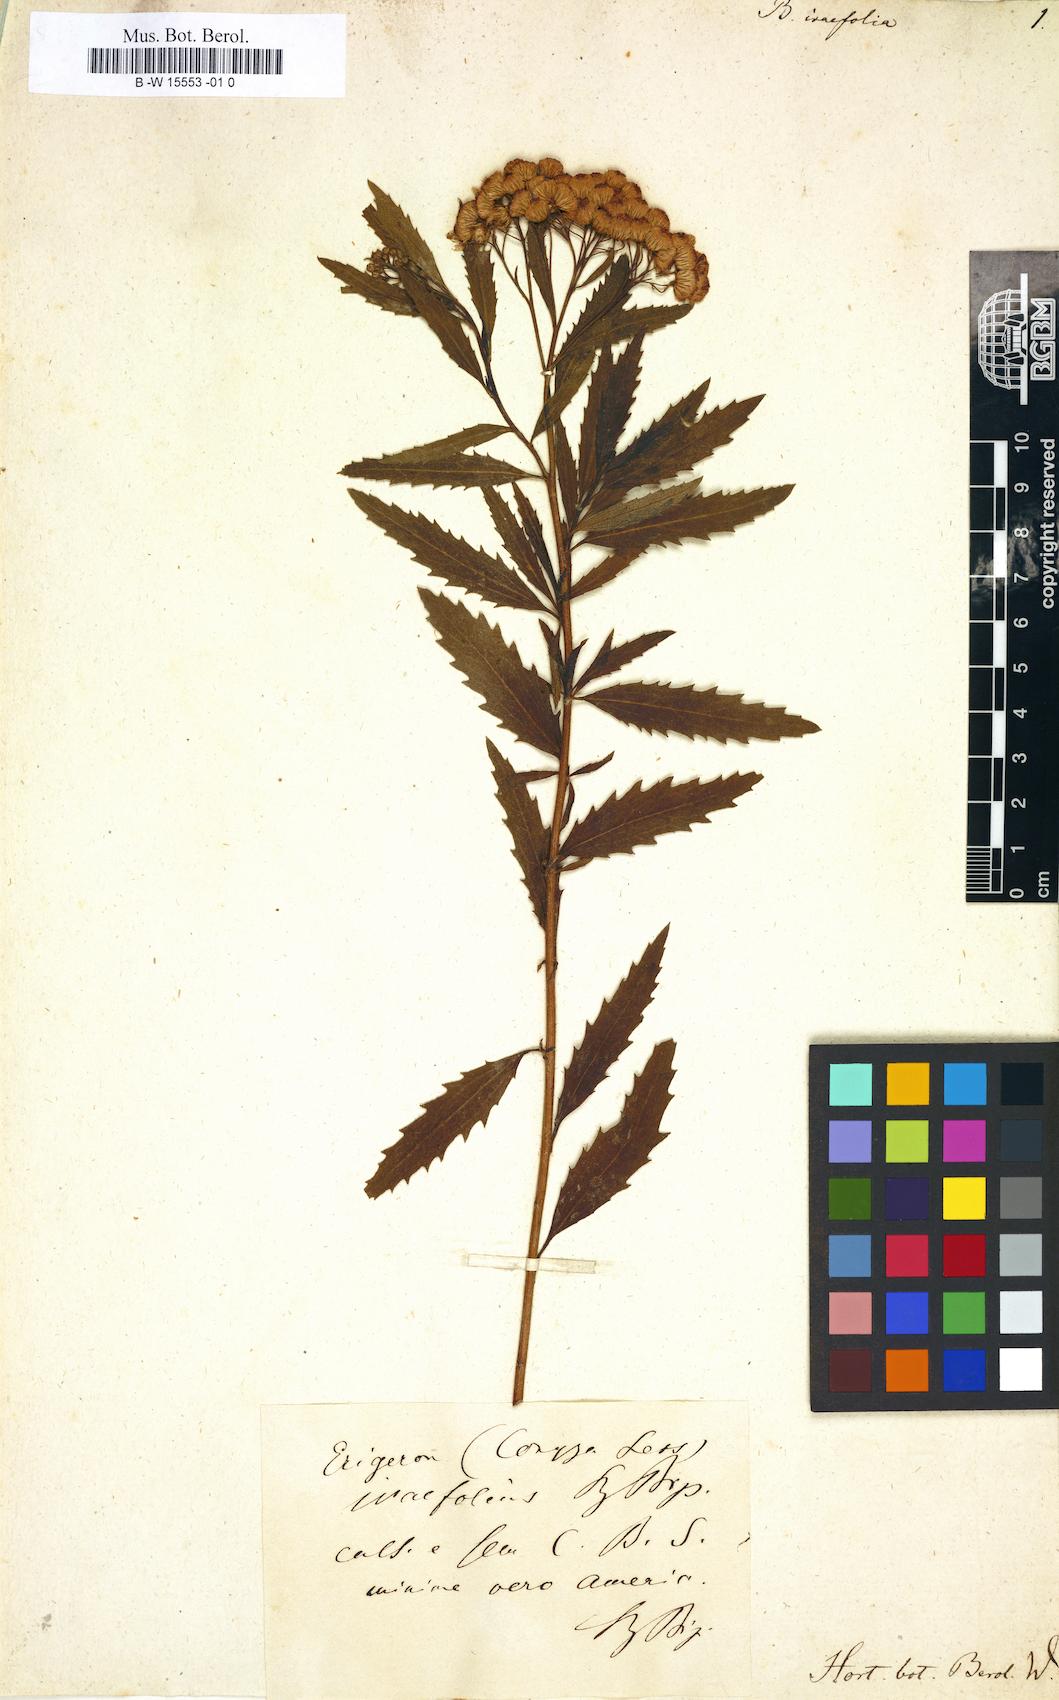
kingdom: Plantae
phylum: Tracheophyta
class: Magnoliopsida
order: Asterales
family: Asteraceae
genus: Baccharis
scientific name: Baccharis
